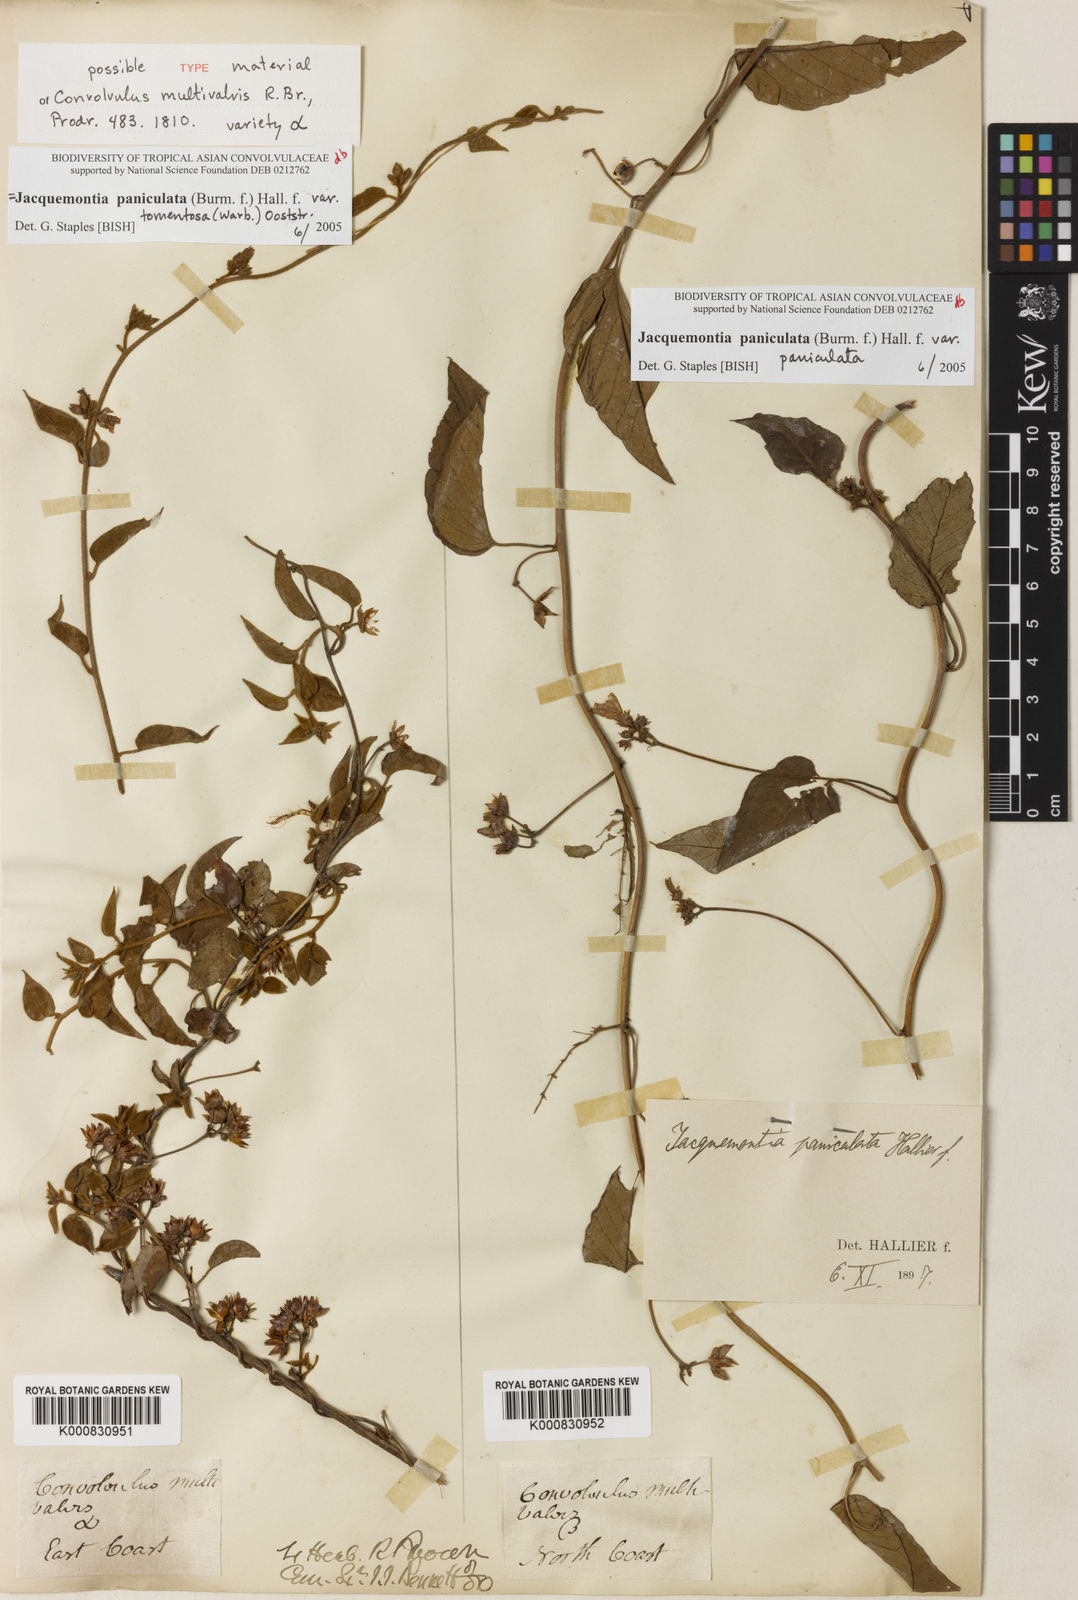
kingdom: Plantae
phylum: Tracheophyta
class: Magnoliopsida
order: Solanales
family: Convolvulaceae
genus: Jacquemontia
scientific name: Jacquemontia paniculata
